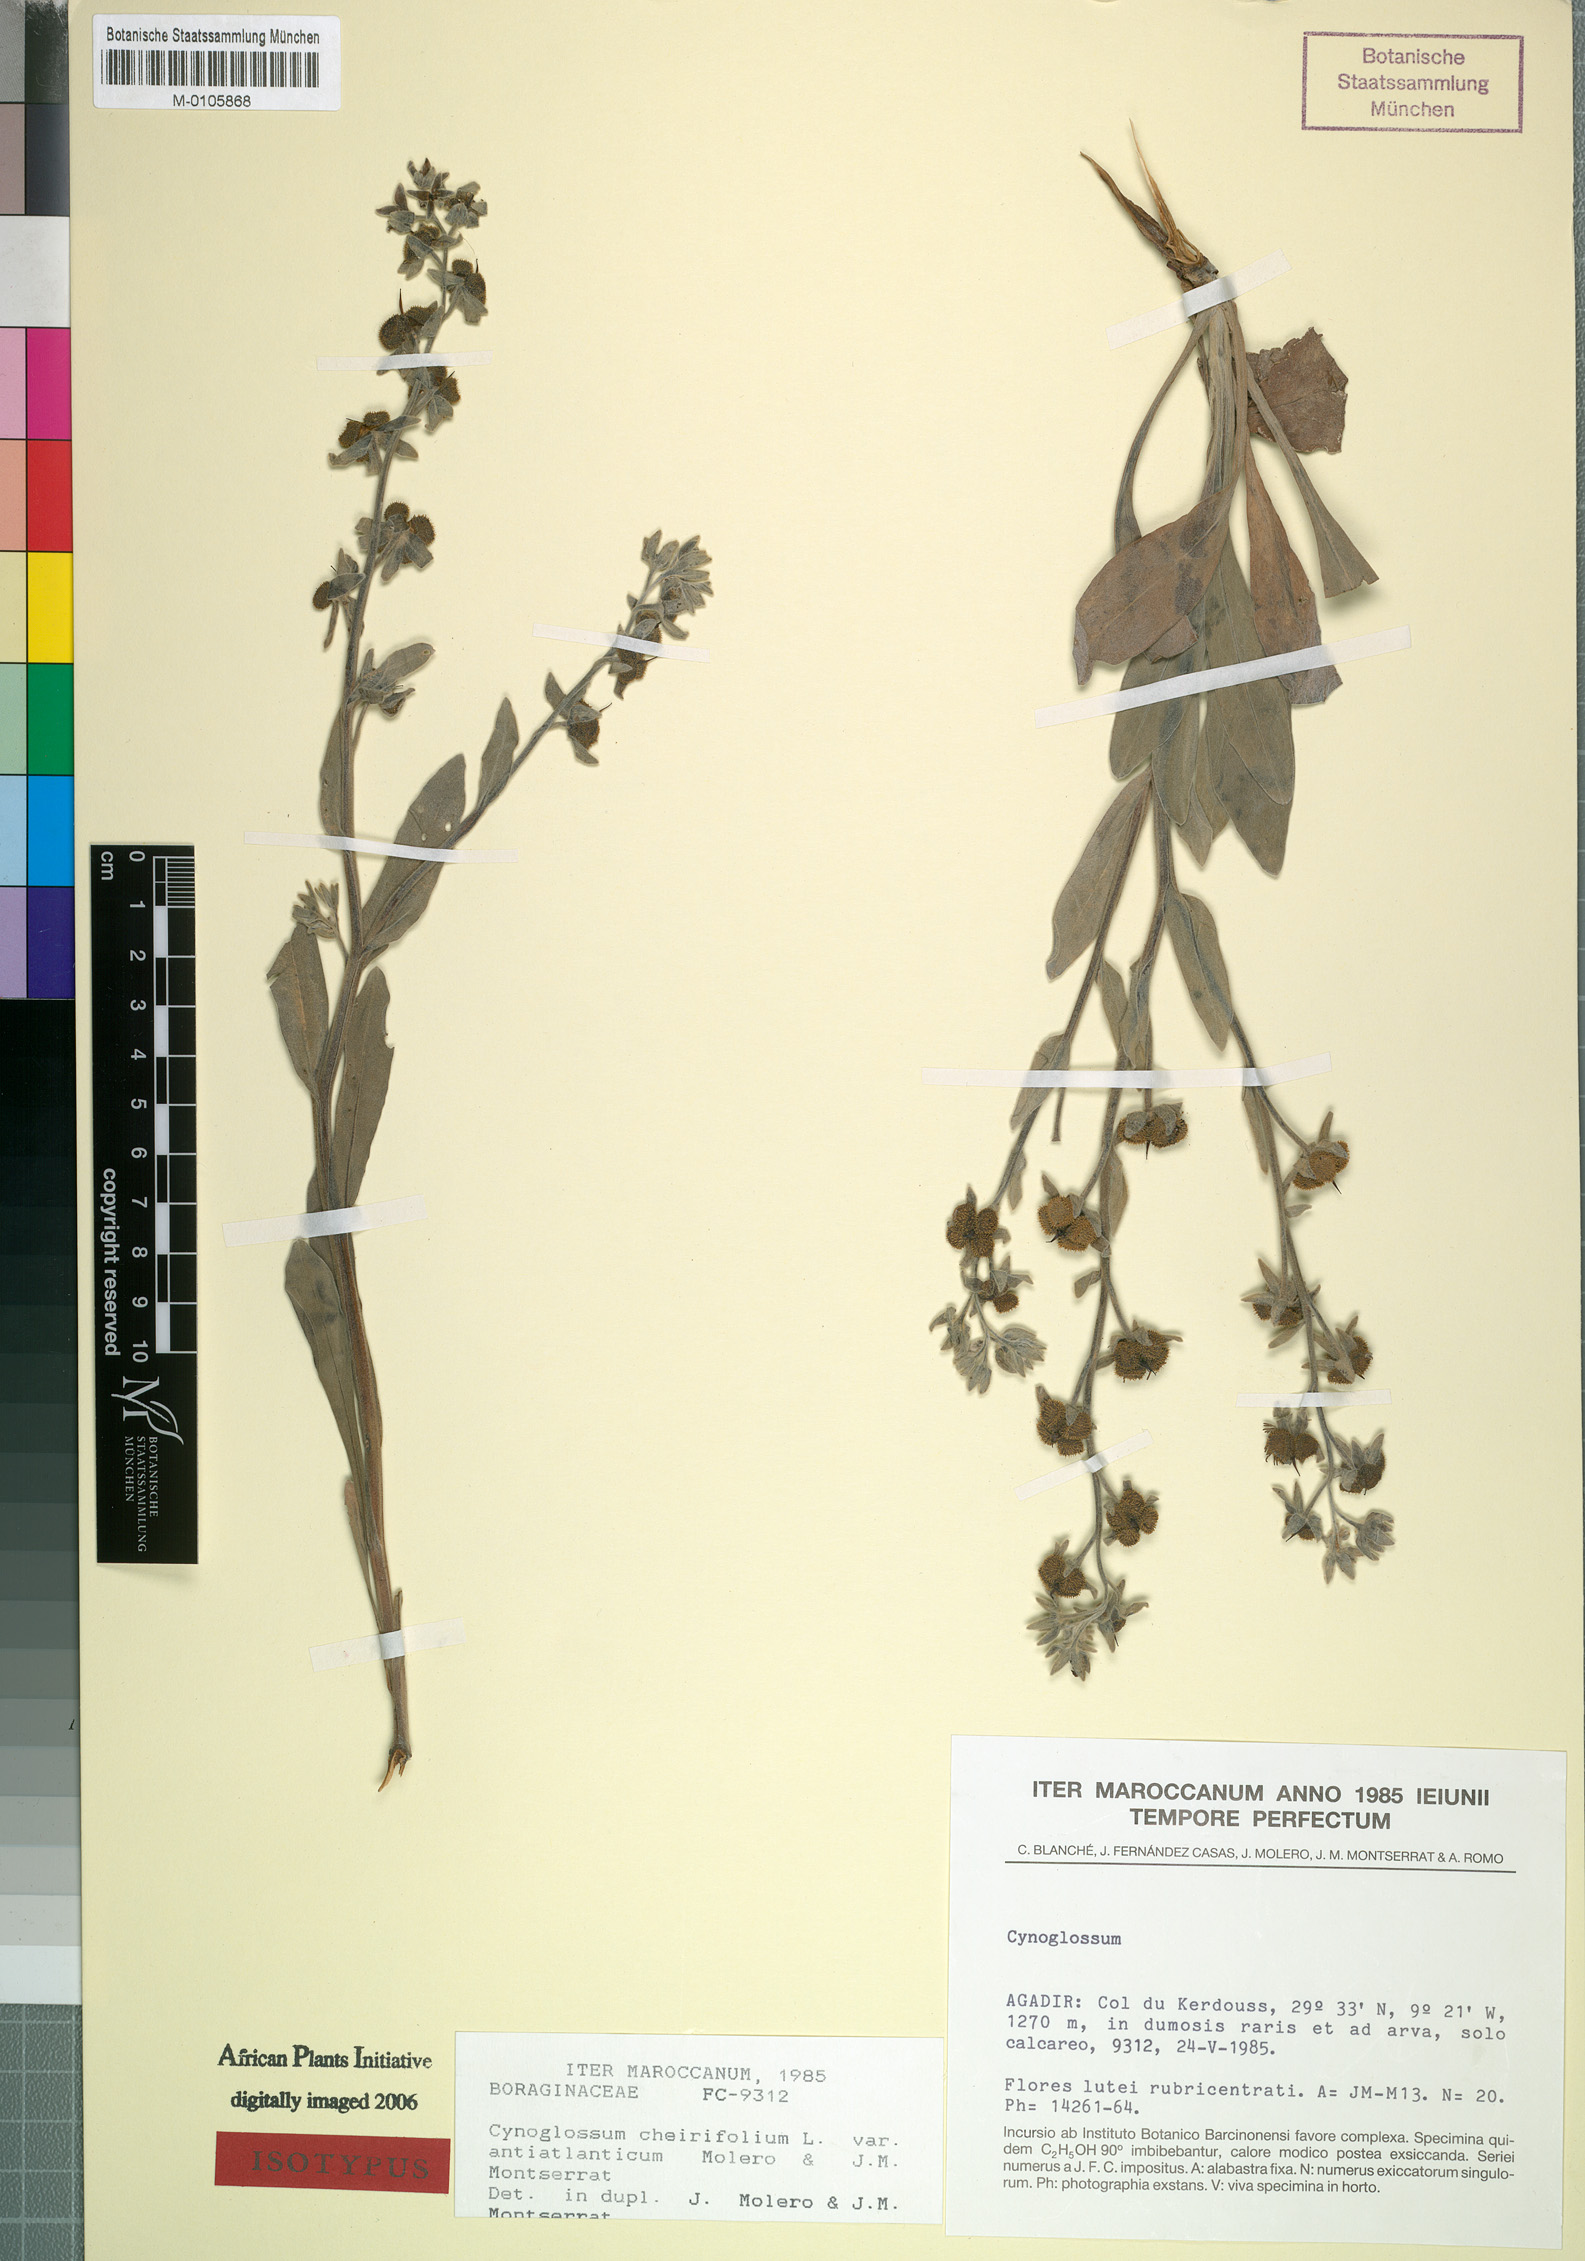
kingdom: Plantae
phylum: Tracheophyta
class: Magnoliopsida
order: Boraginales
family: Boraginaceae
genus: Pardoglossum
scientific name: Pardoglossum cheirifolium
